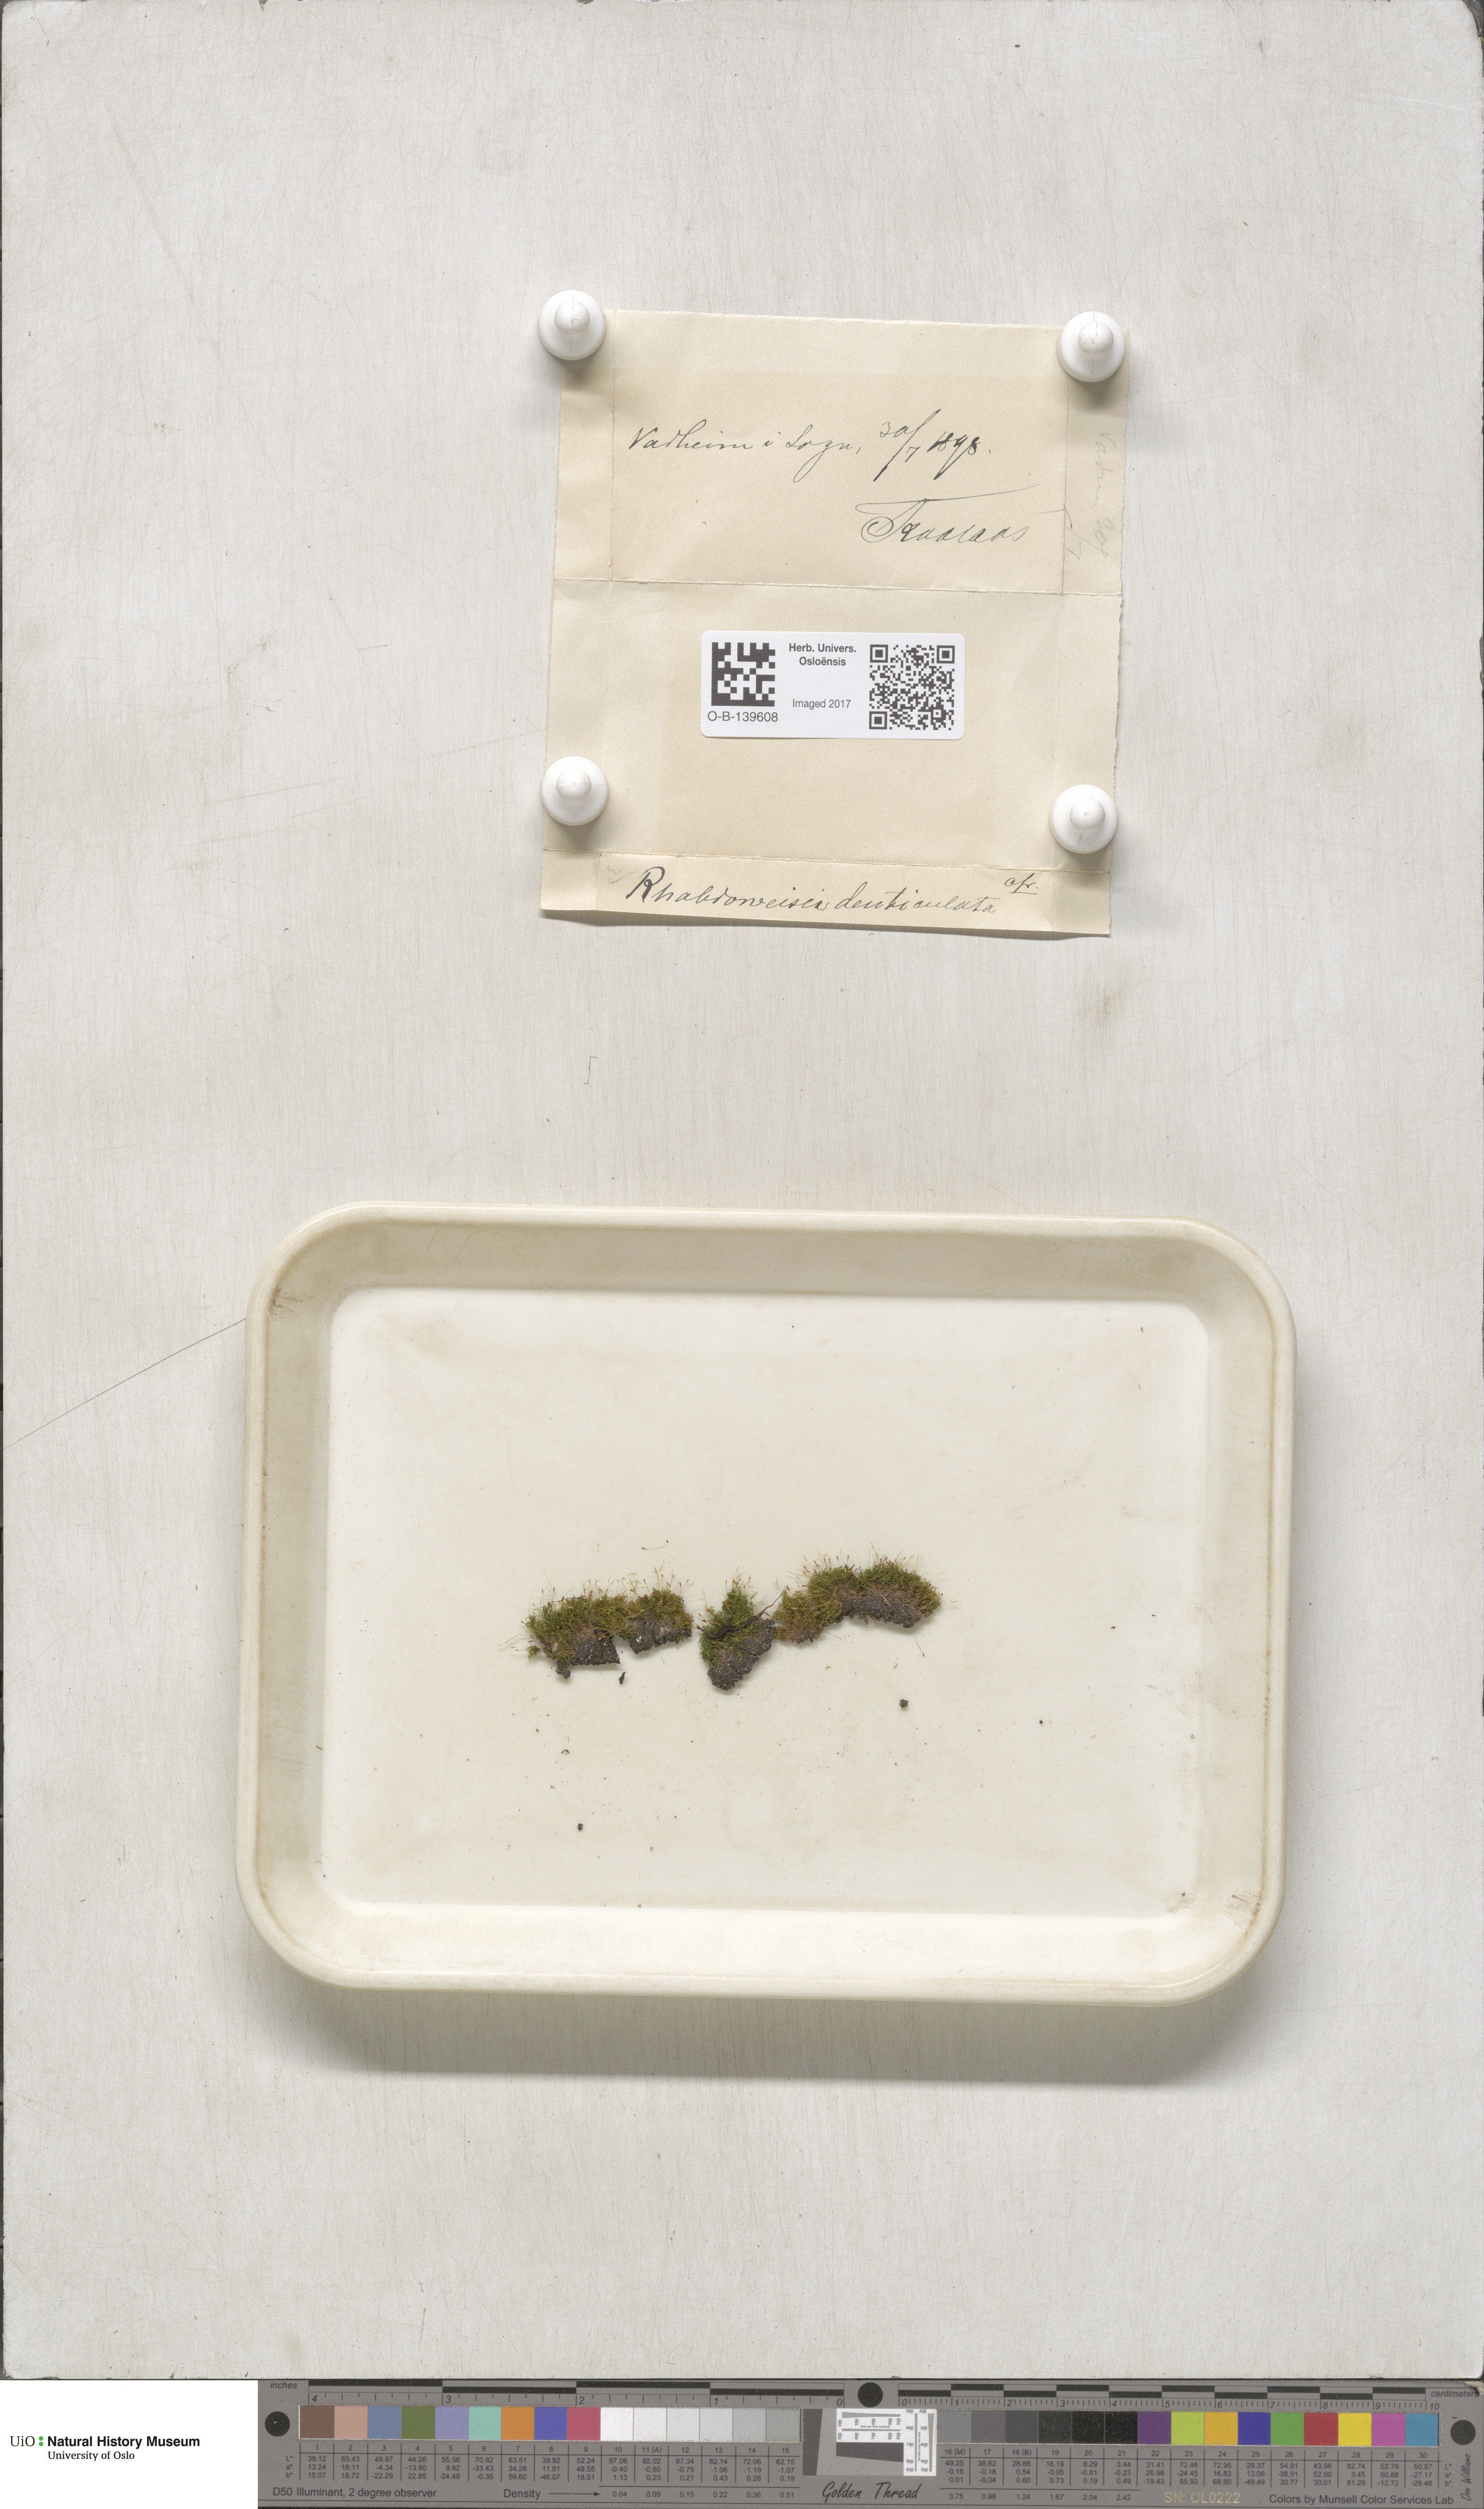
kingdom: Plantae
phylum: Bryophyta
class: Bryopsida
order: Dicranales
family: Rhabdoweisiaceae
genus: Rhabdoweisia
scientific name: Rhabdoweisia crispata
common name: Fine-toothed streak moss
